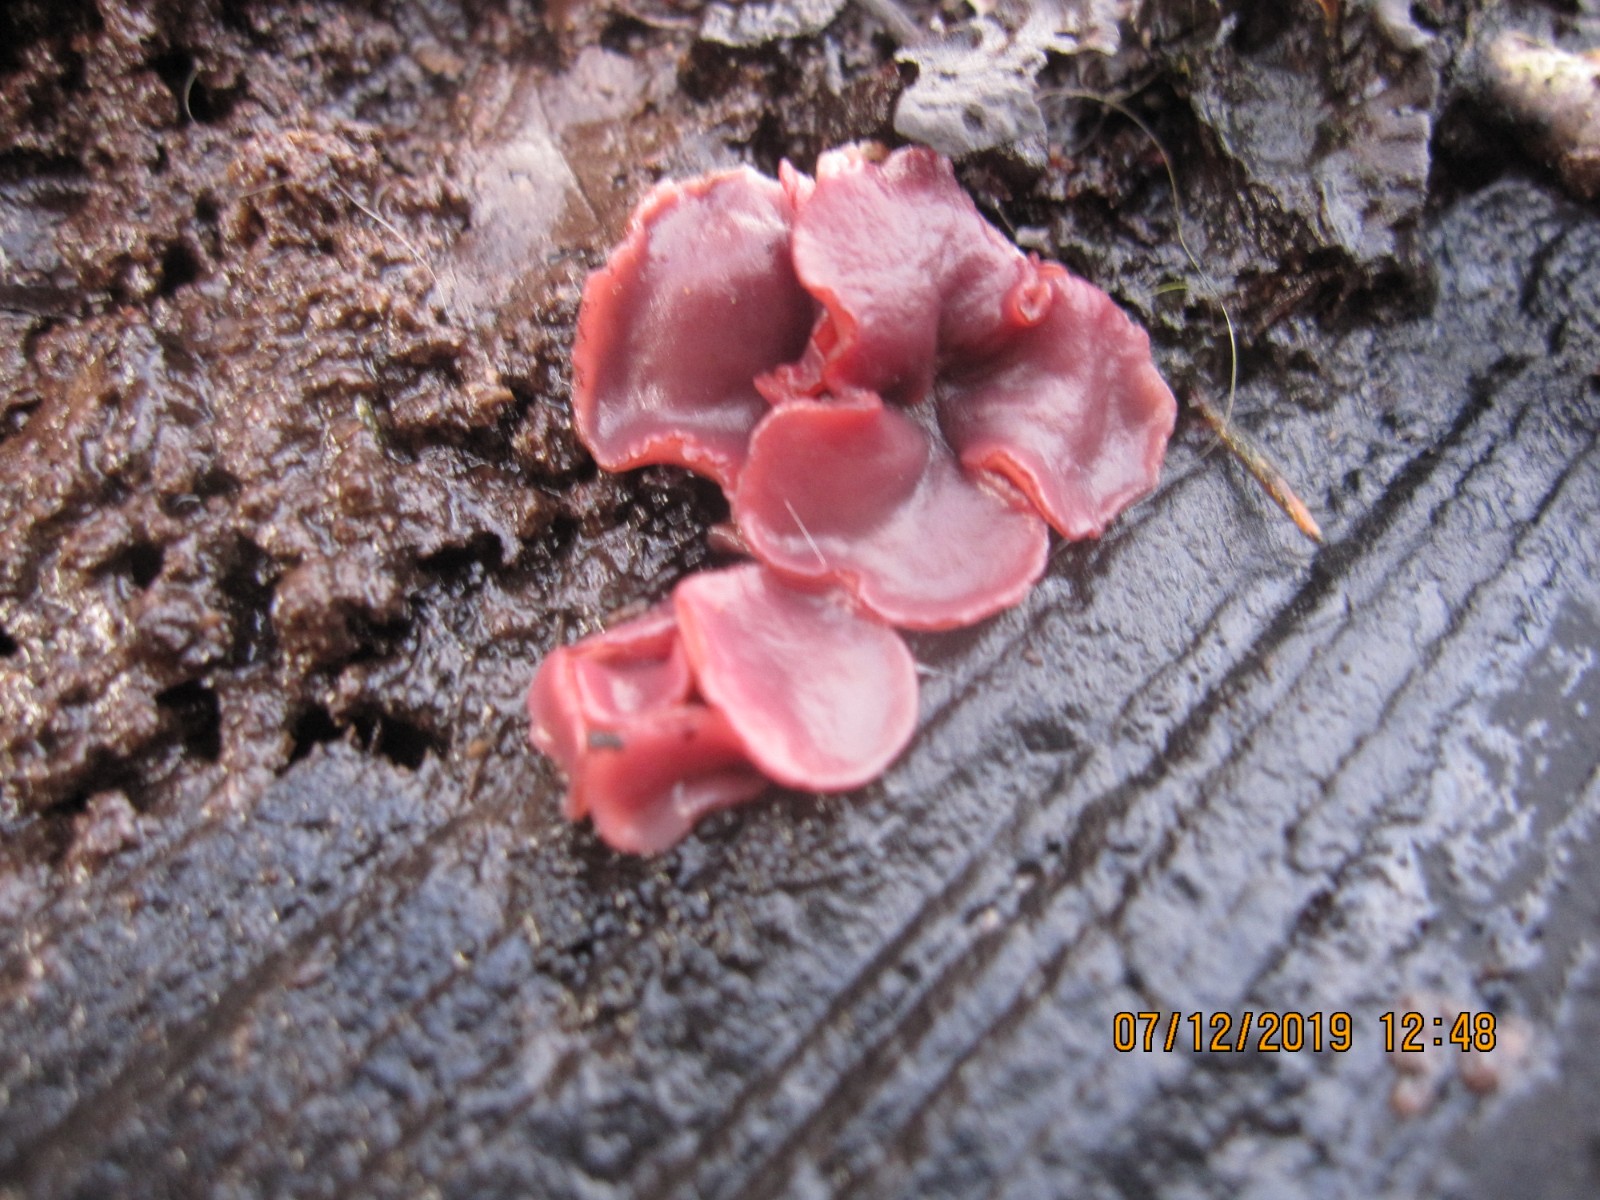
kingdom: Fungi
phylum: Ascomycota
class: Leotiomycetes
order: Helotiales
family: Gelatinodiscaceae
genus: Ascocoryne
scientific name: Ascocoryne cylichnium
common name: stor sejskive
